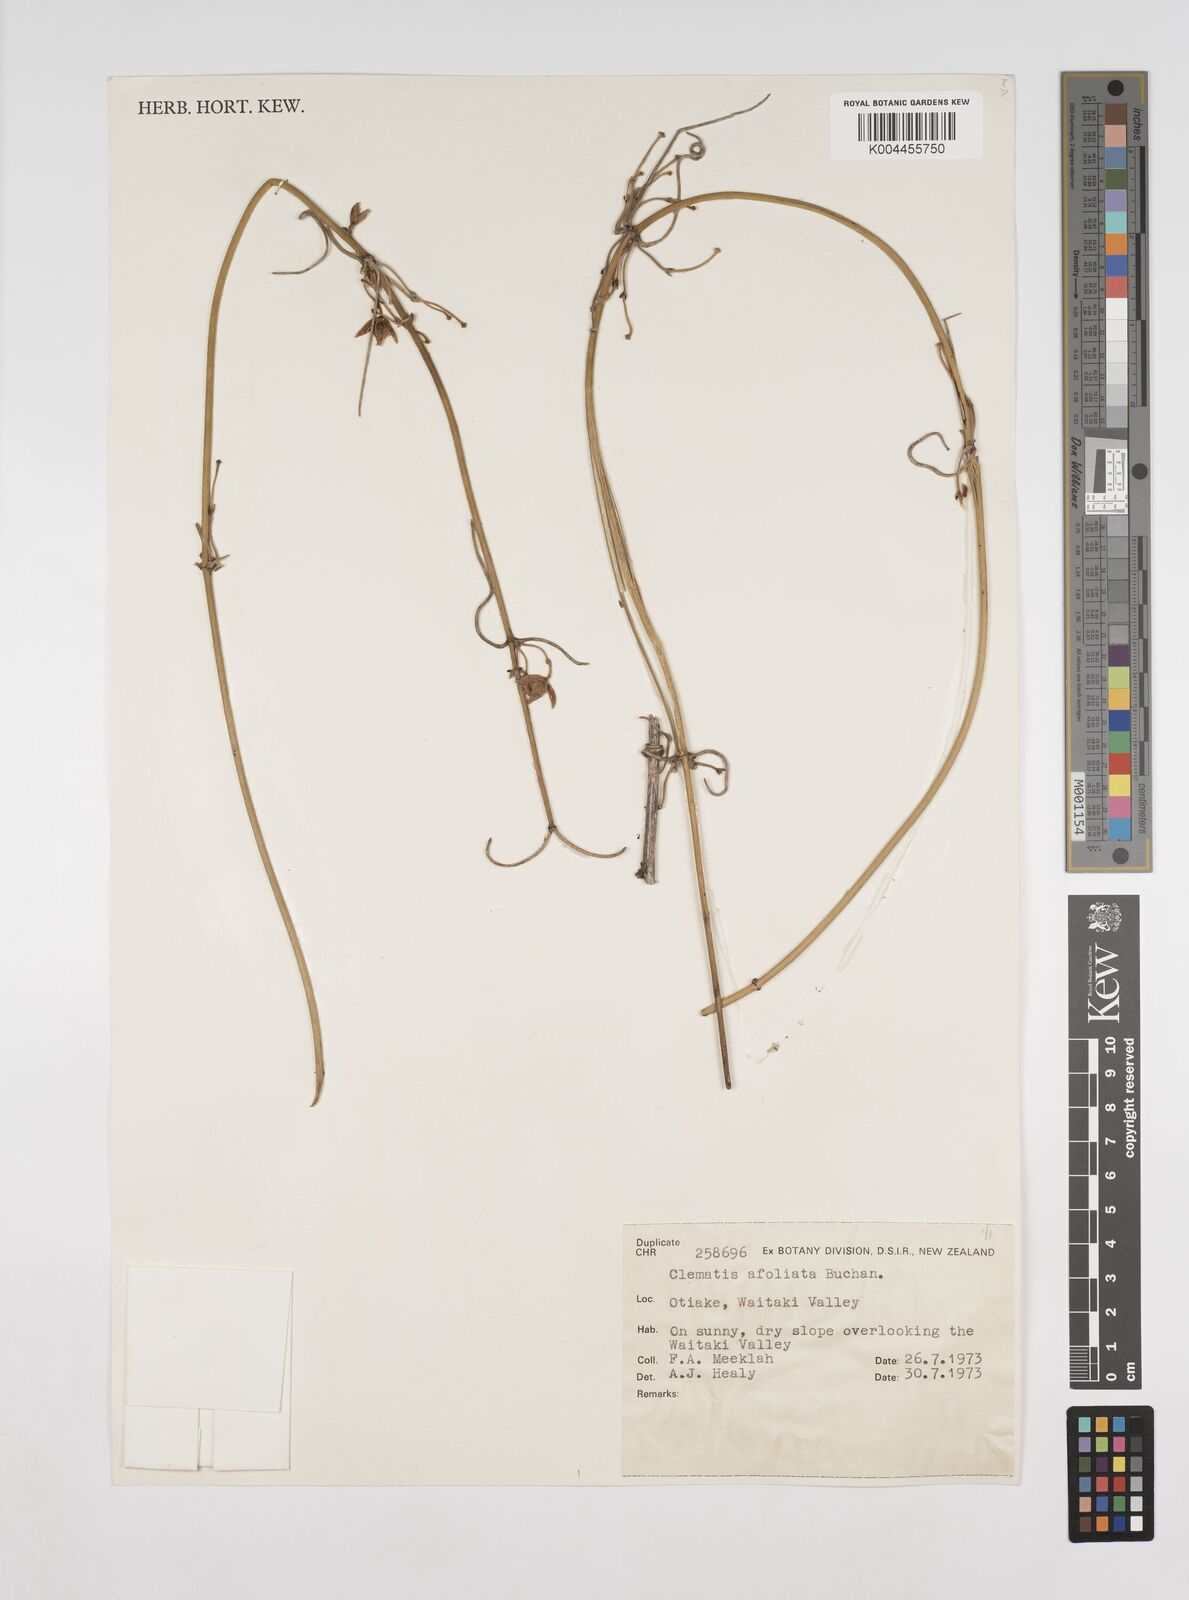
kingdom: Plantae
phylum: Tracheophyta
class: Magnoliopsida
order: Ranunculales
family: Ranunculaceae
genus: Clematis
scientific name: Clematis afoliata
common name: Rush-stem clematis
